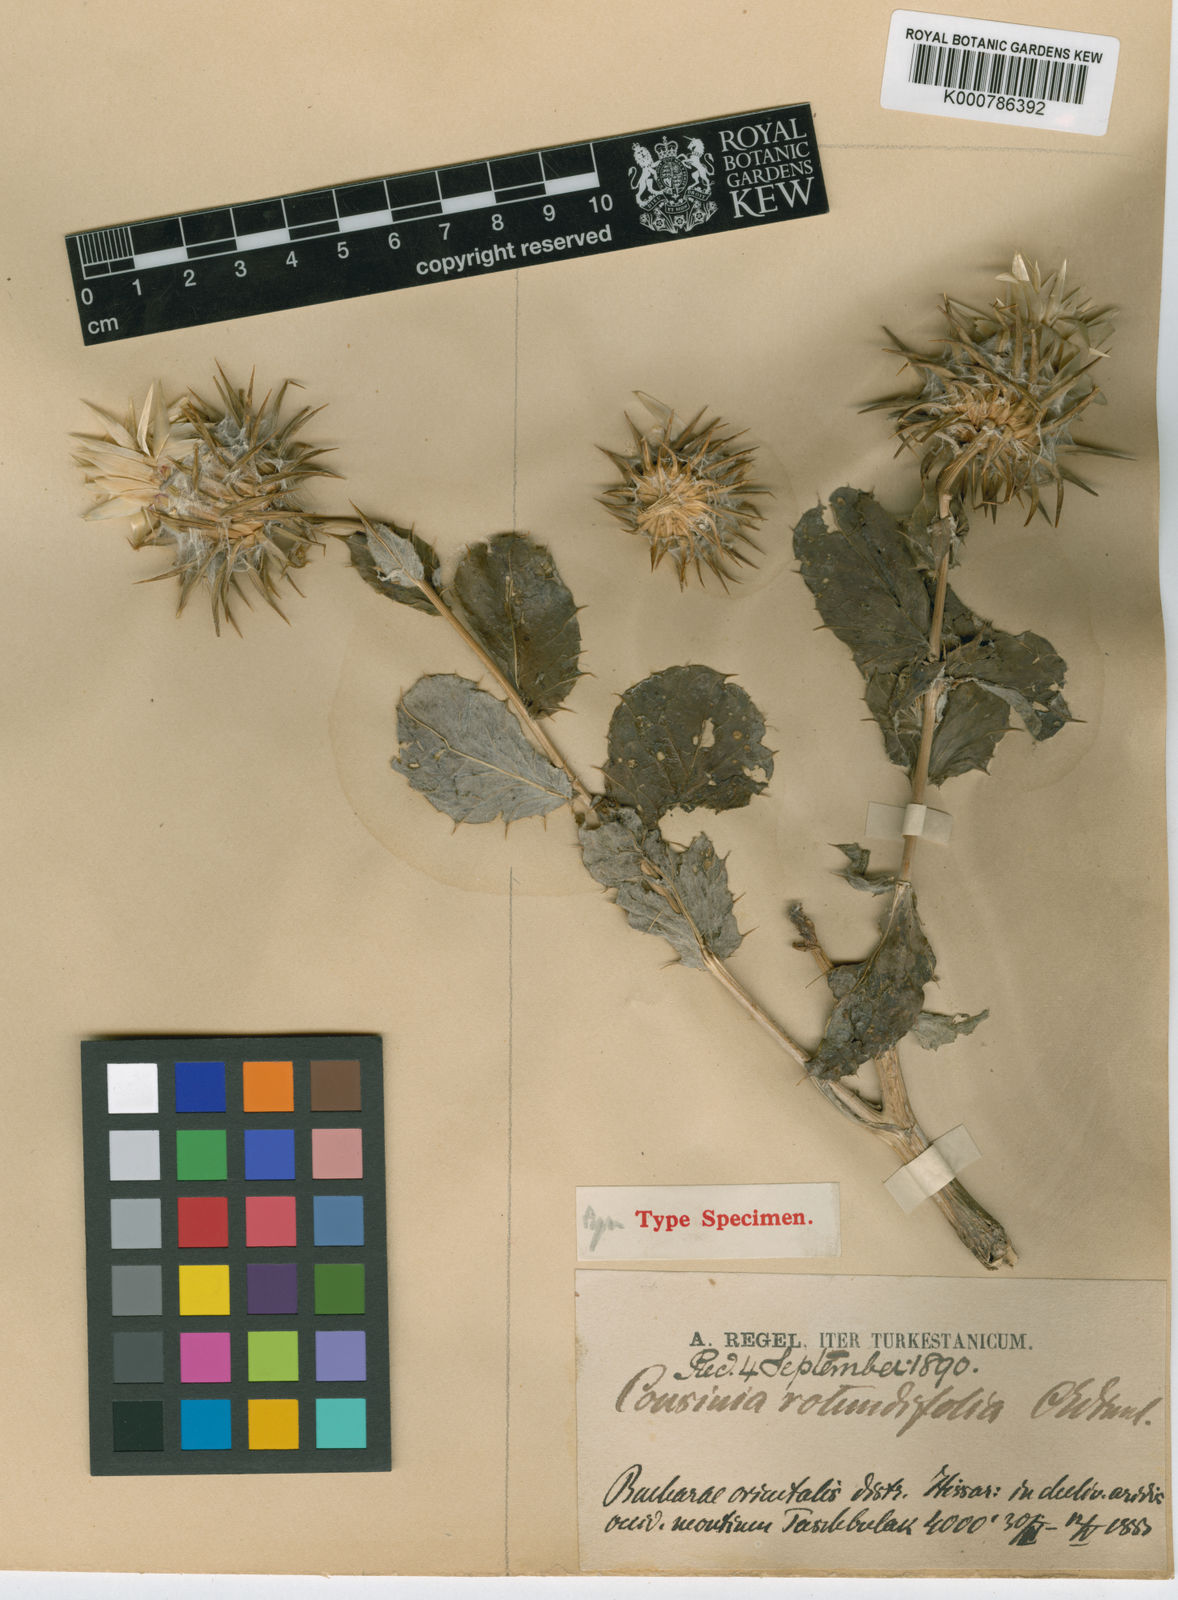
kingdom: Plantae
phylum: Tracheophyta
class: Magnoliopsida
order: Asterales
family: Asteraceae
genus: Cousinia
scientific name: Cousinia rotundifolia
